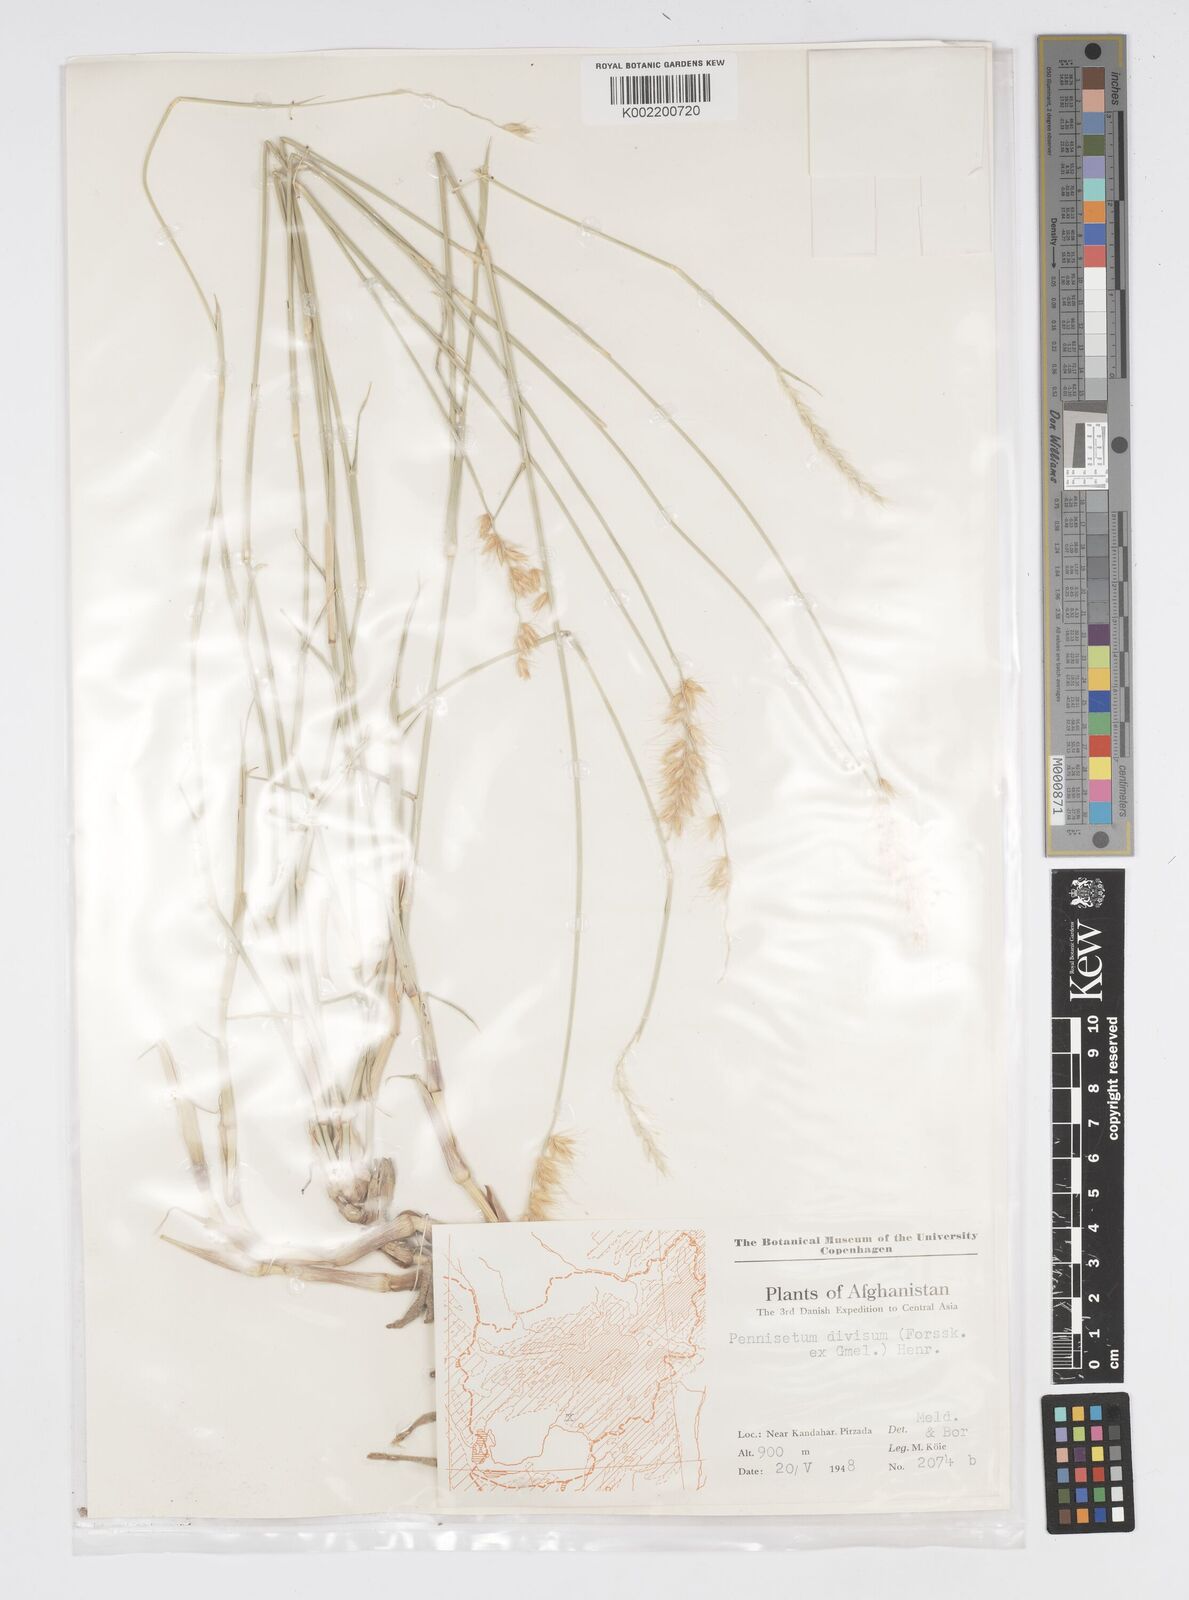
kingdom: Plantae
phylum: Tracheophyta
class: Liliopsida
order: Poales
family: Poaceae
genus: Cenchrus
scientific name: Cenchrus divisus
